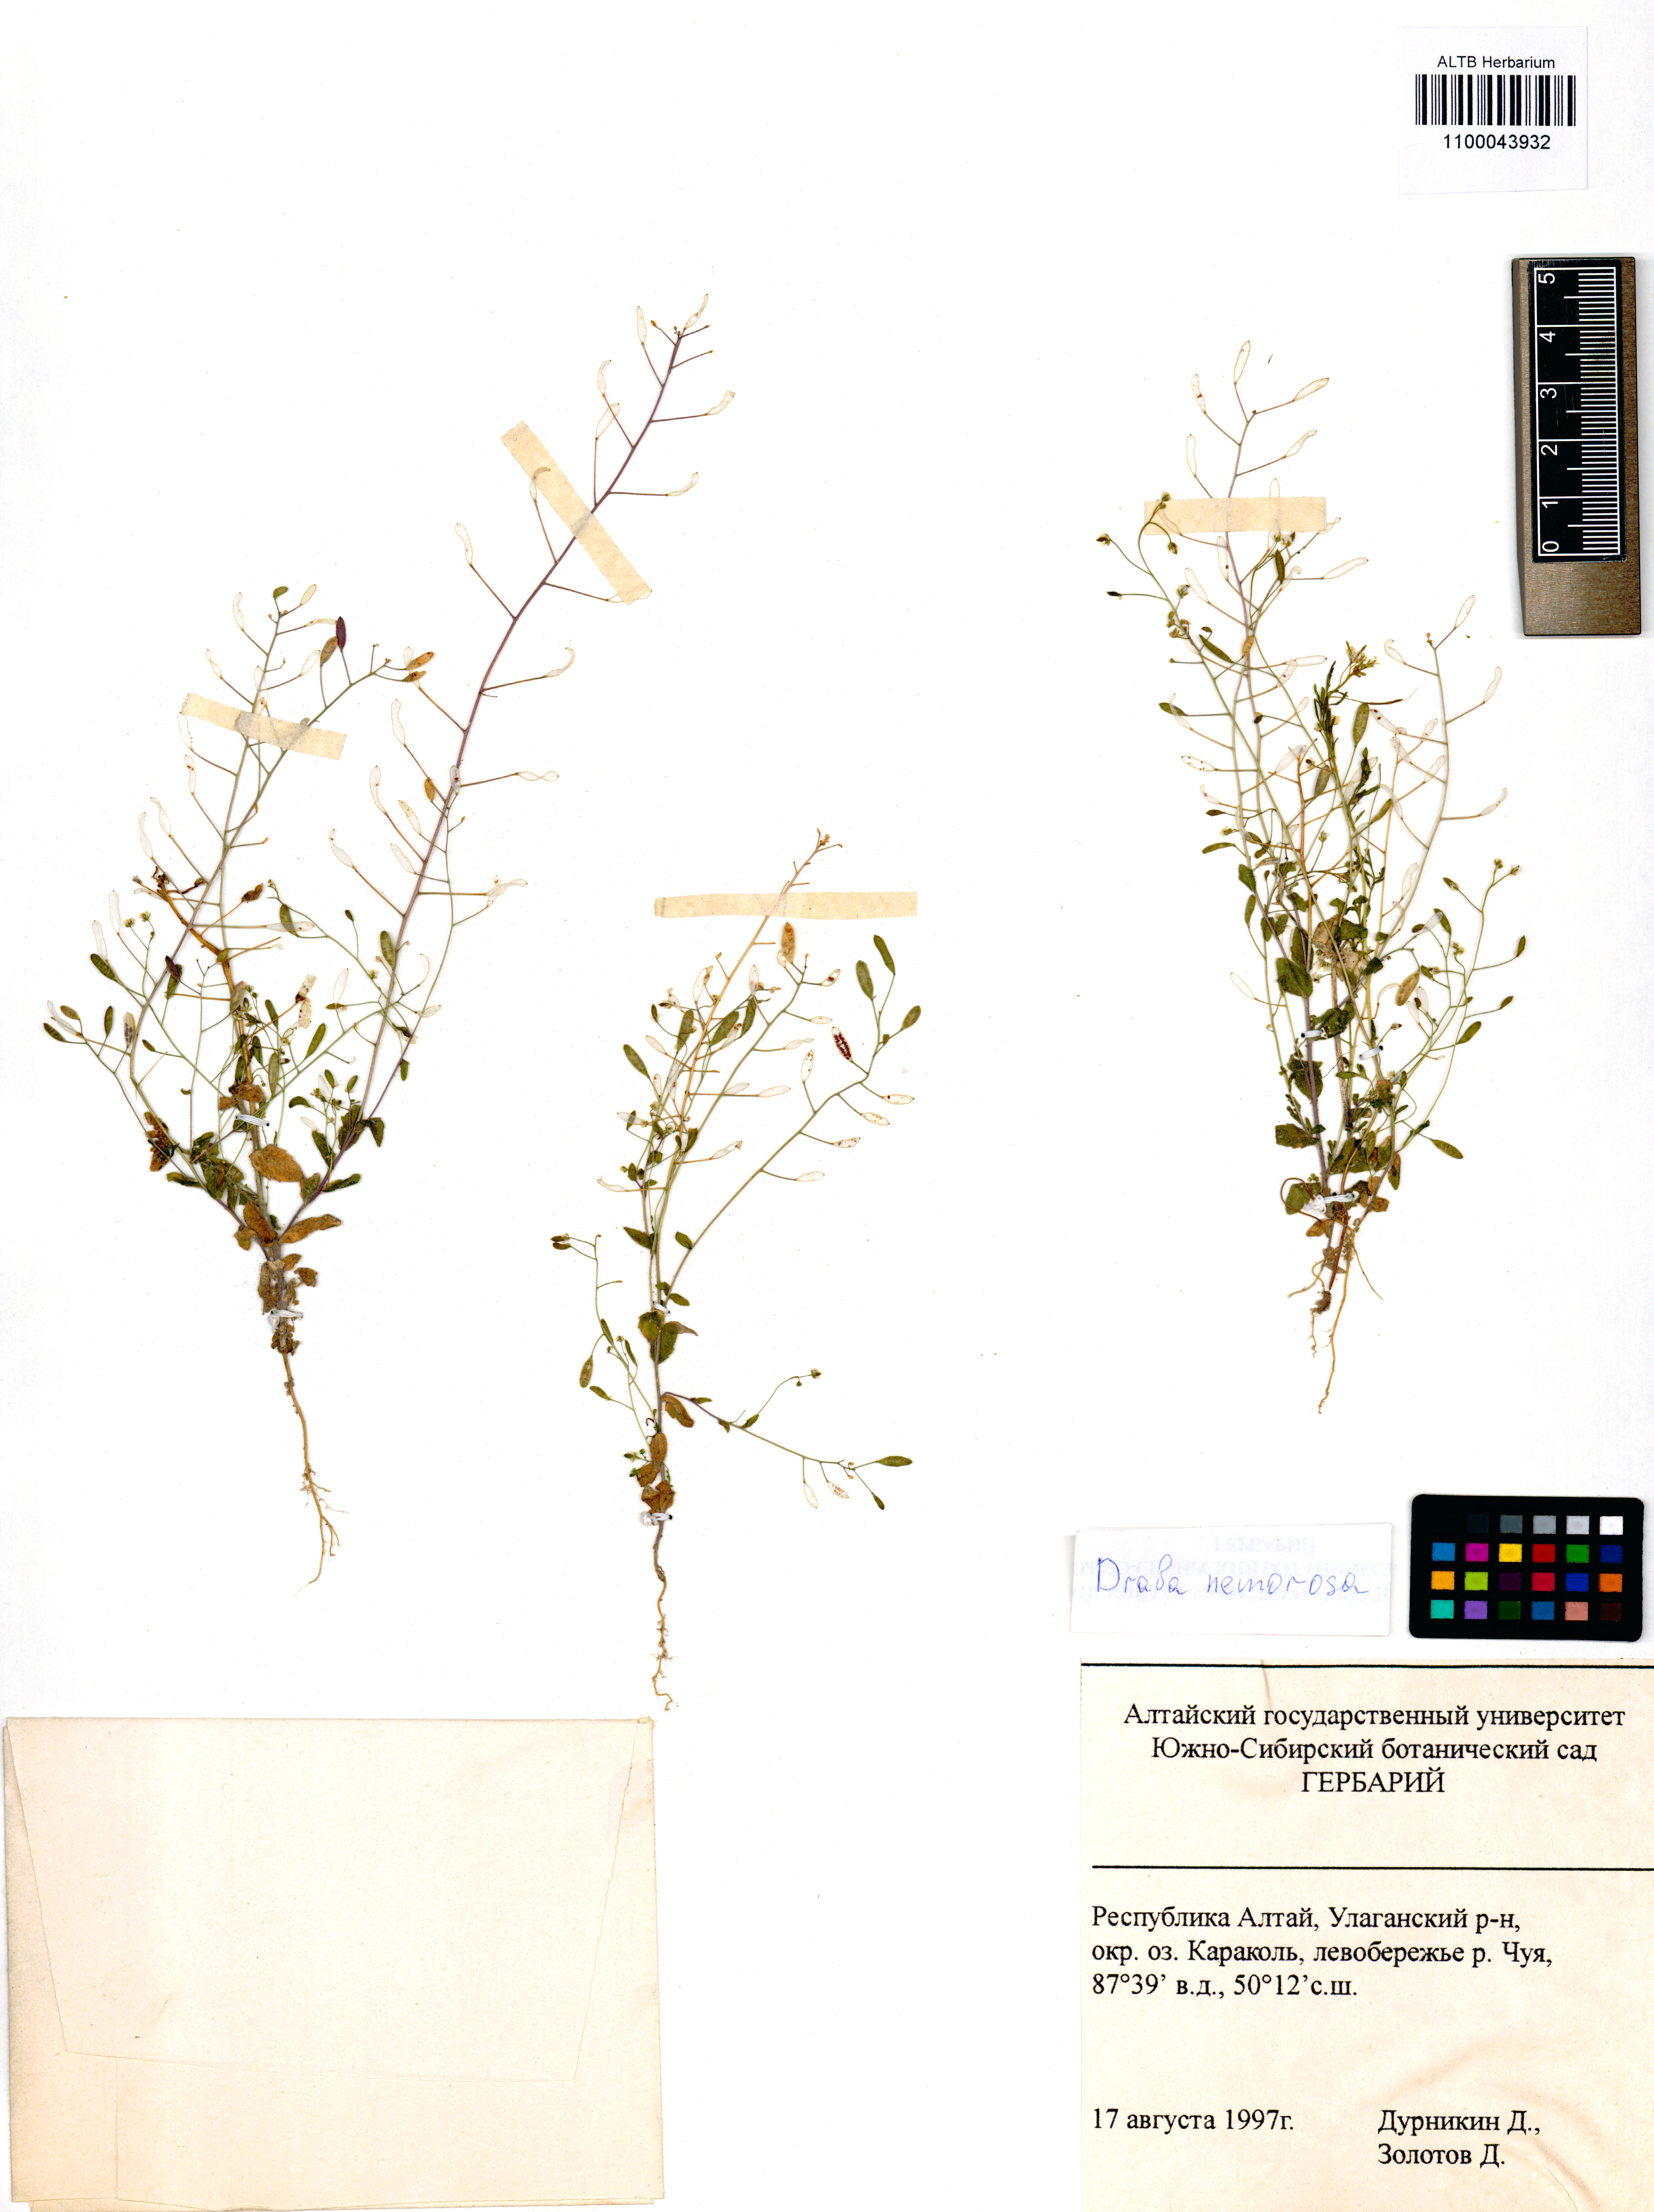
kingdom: Plantae
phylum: Tracheophyta
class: Magnoliopsida
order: Brassicales
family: Brassicaceae
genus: Draba
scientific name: Draba nemorosa
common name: Wood whitlow-grass
